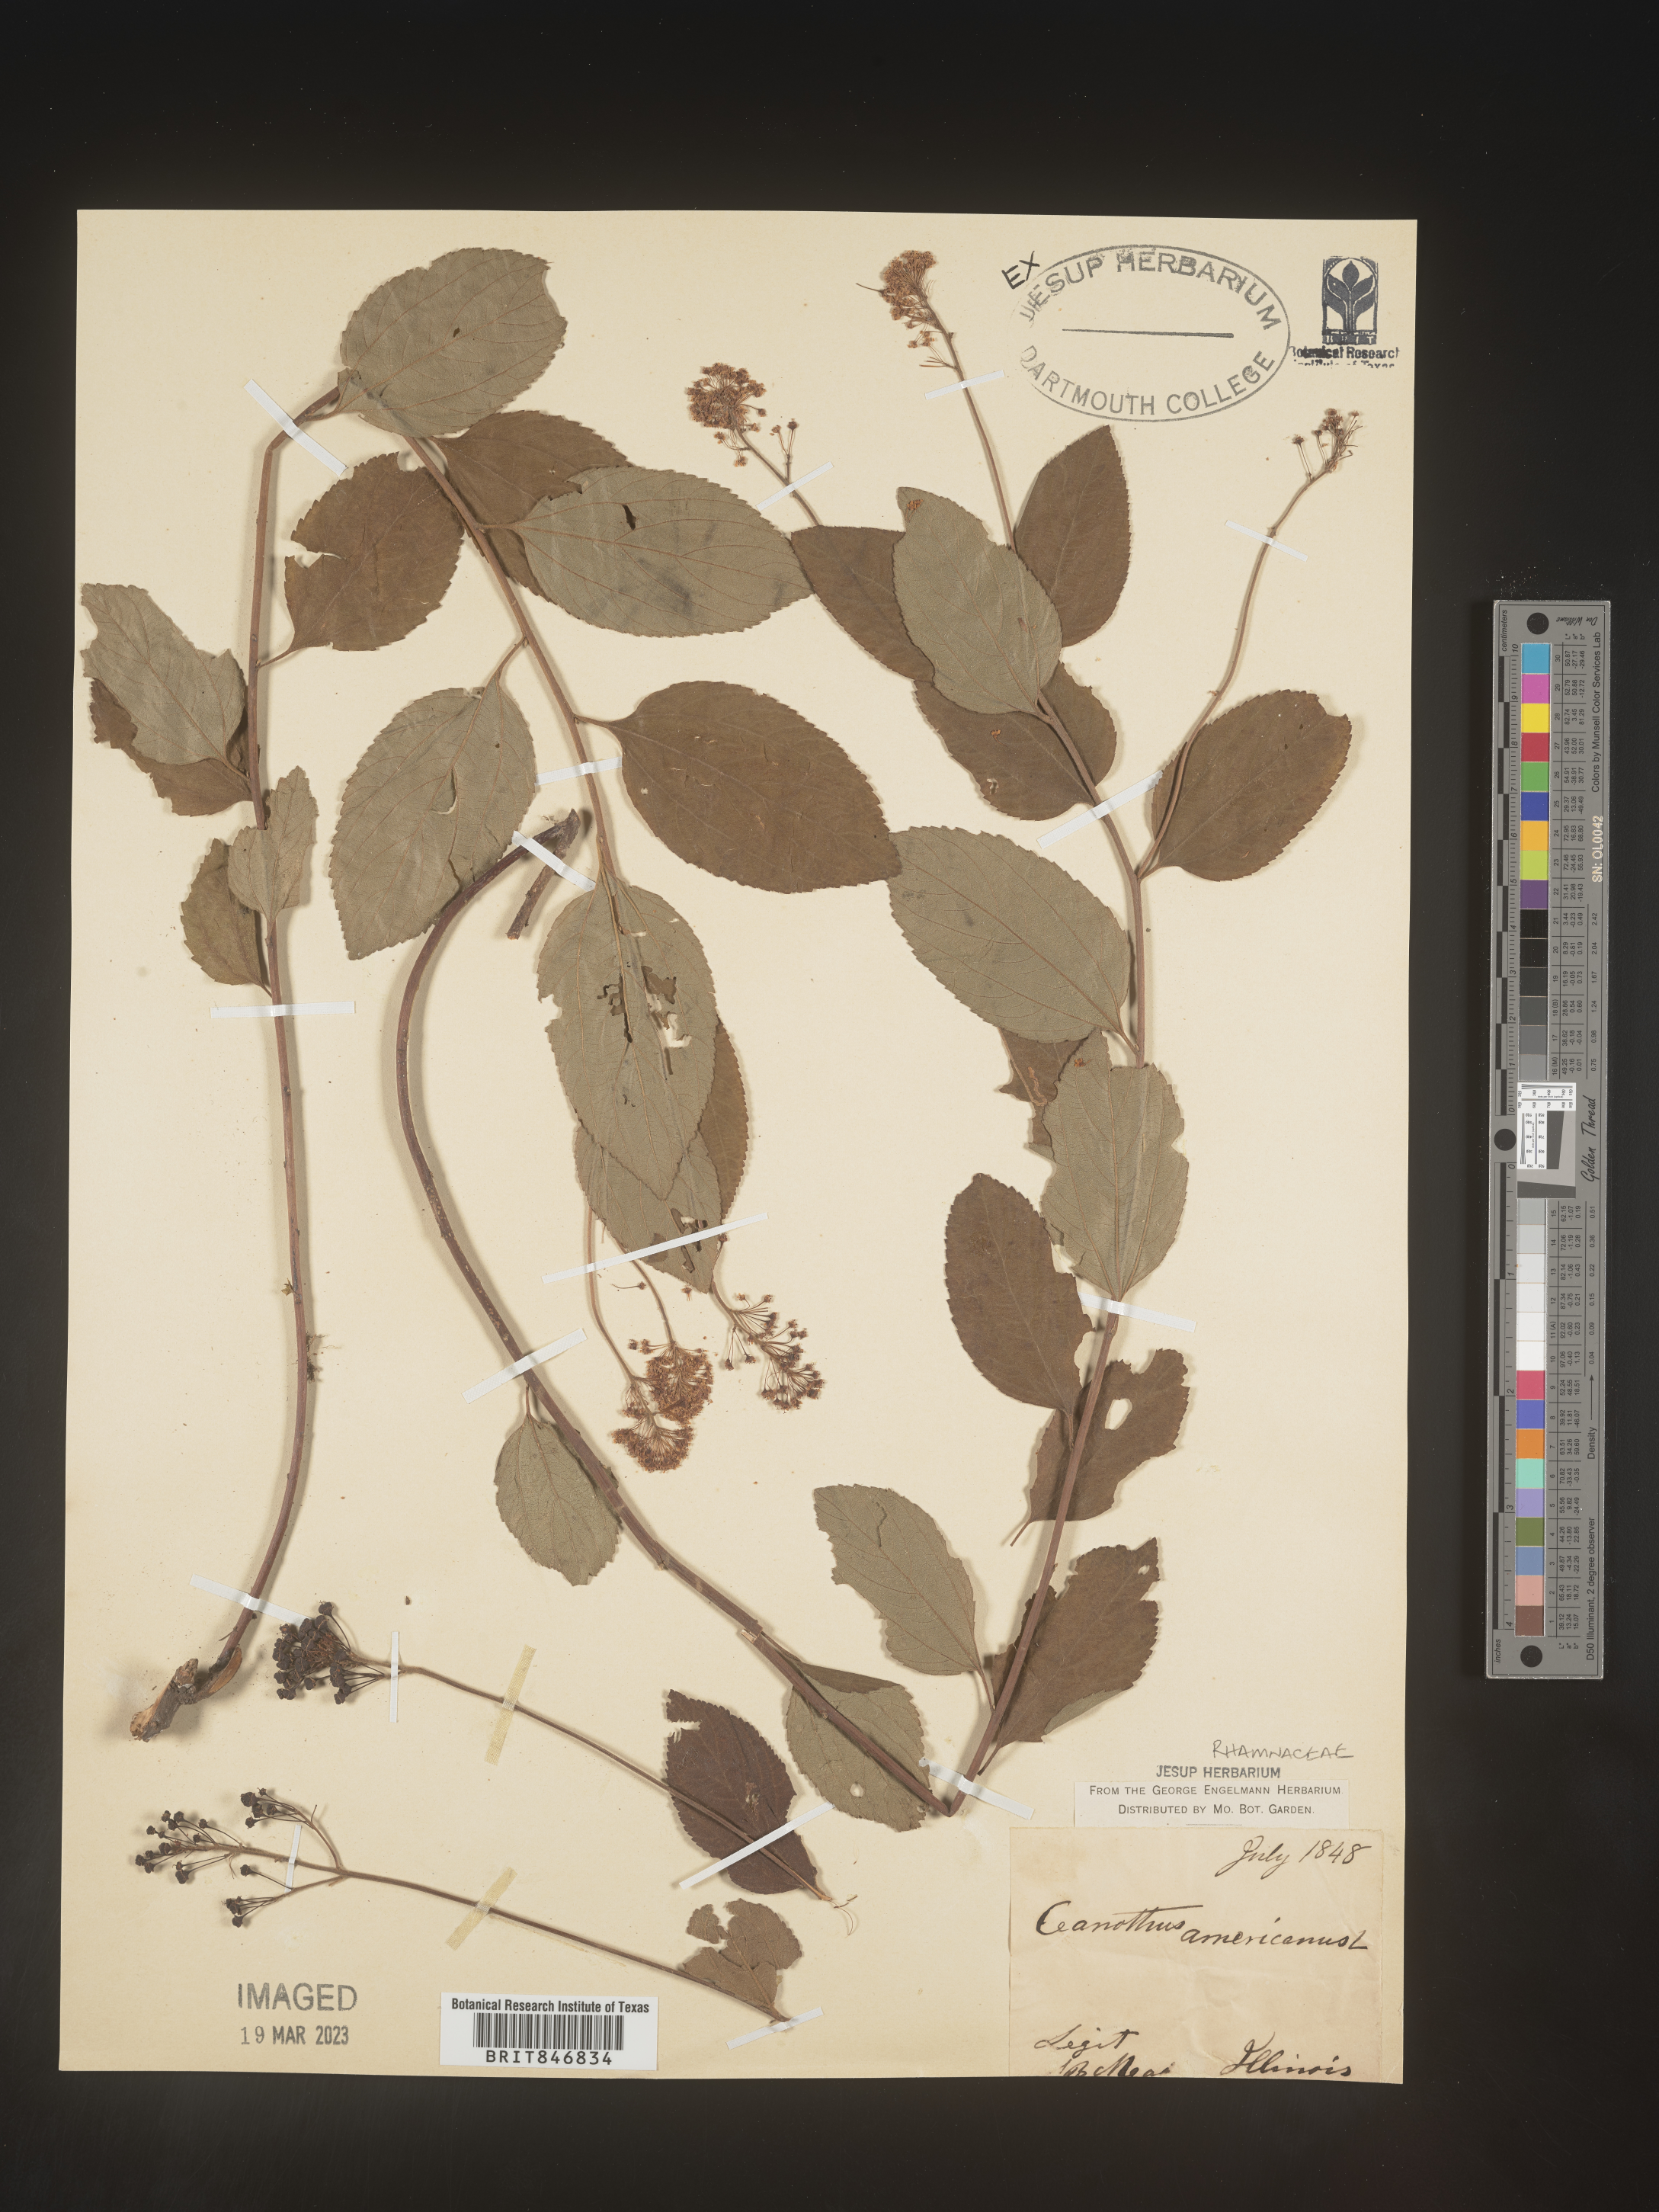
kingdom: Plantae
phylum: Tracheophyta
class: Magnoliopsida
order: Rosales
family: Rhamnaceae
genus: Ceanothus
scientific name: Ceanothus americanus
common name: Redroot
